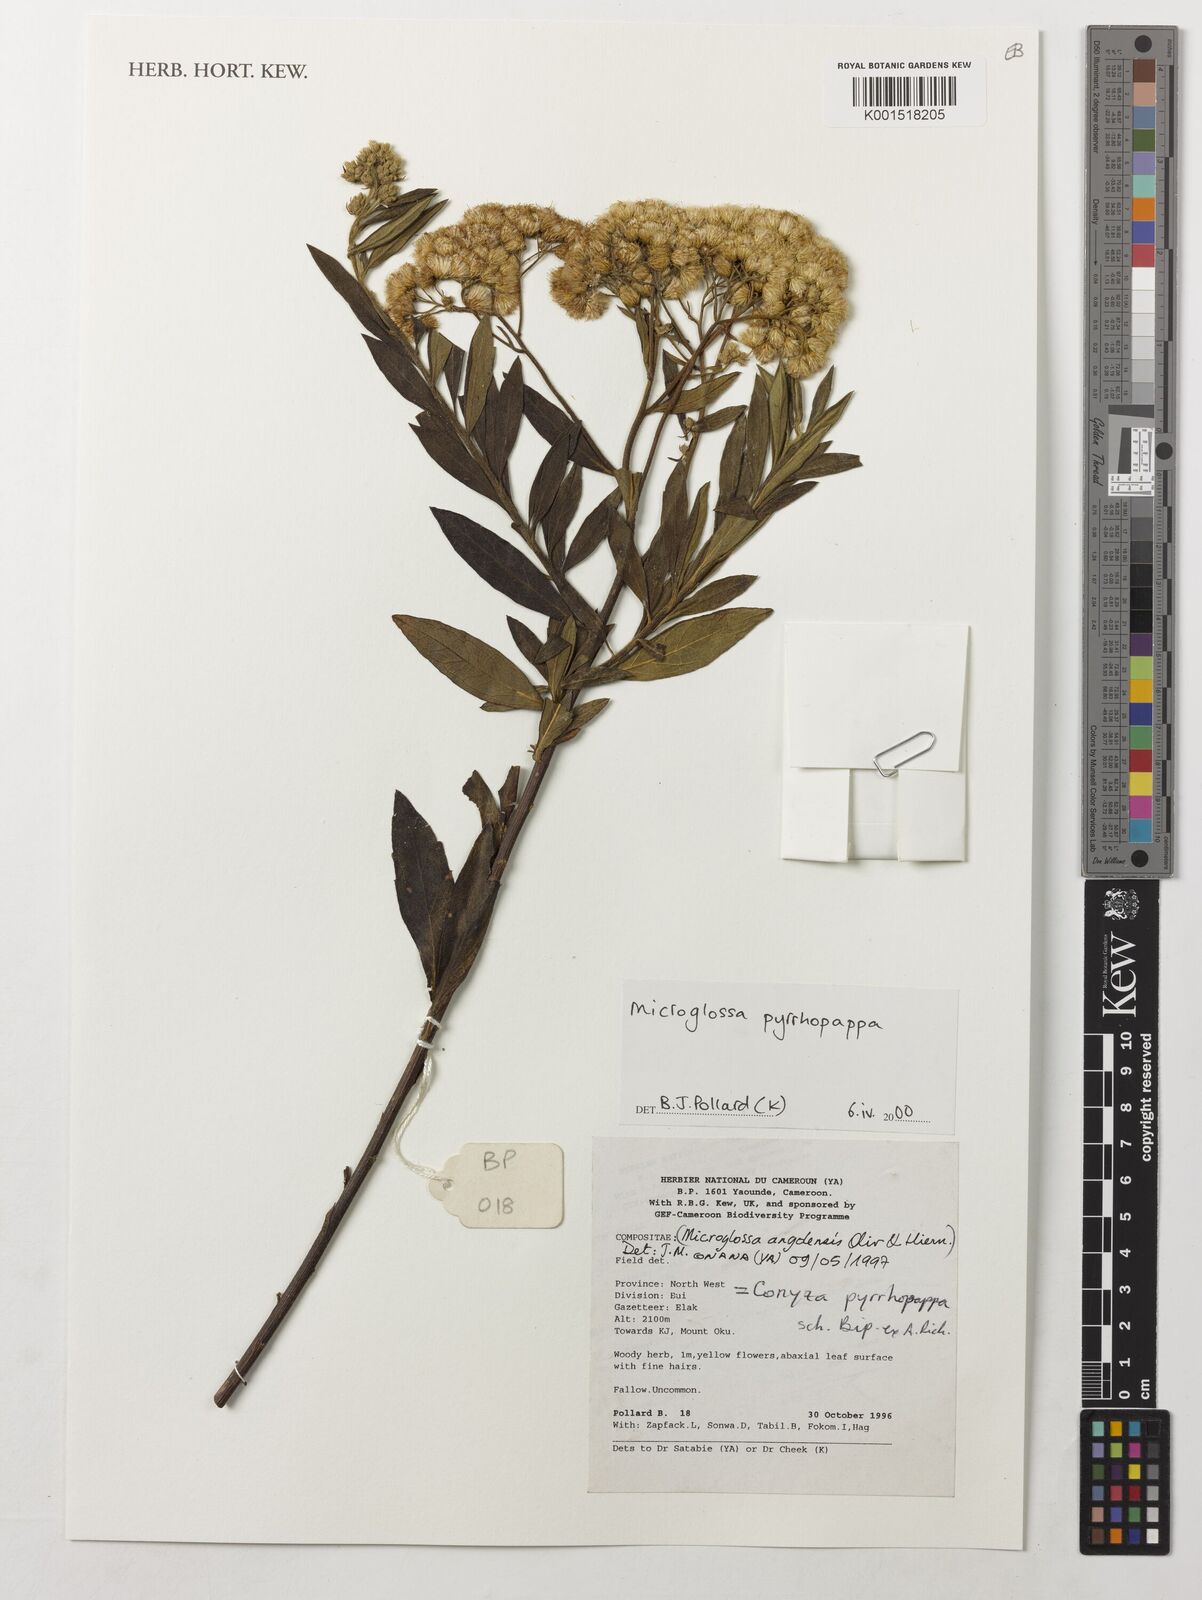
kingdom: Plantae
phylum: Tracheophyta
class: Magnoliopsida
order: Asterales
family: Asteraceae
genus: Microglossa
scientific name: Microglossa pyrrhopappa
